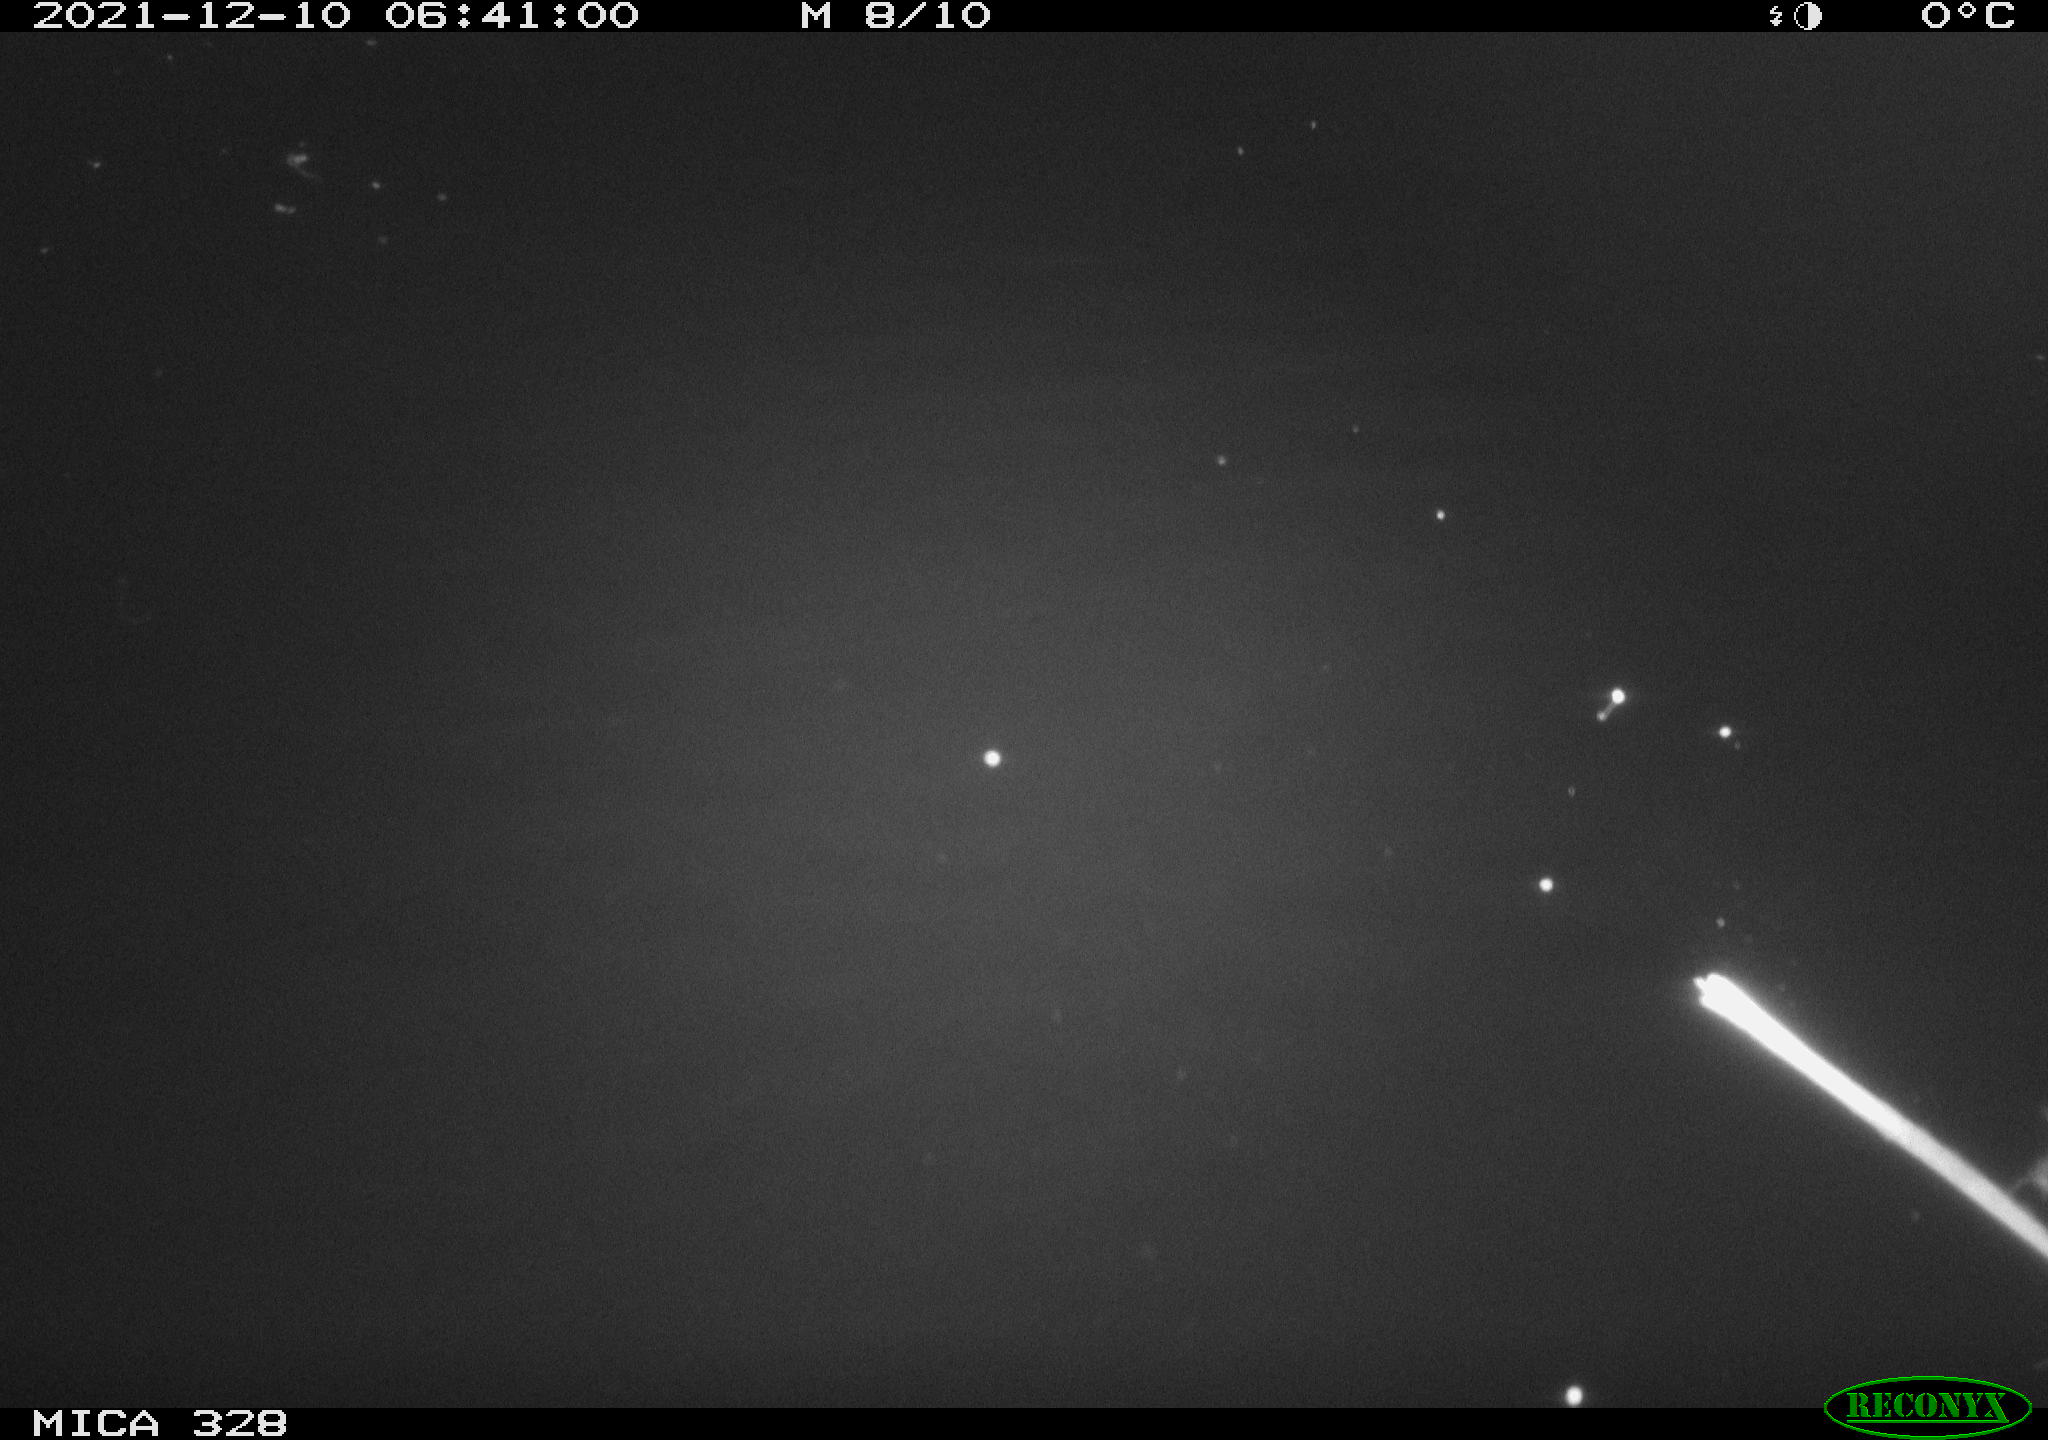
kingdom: Animalia
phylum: Chordata
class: Mammalia
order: Rodentia
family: Cricetidae
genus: Ondatra
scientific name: Ondatra zibethicus
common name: Muskrat
